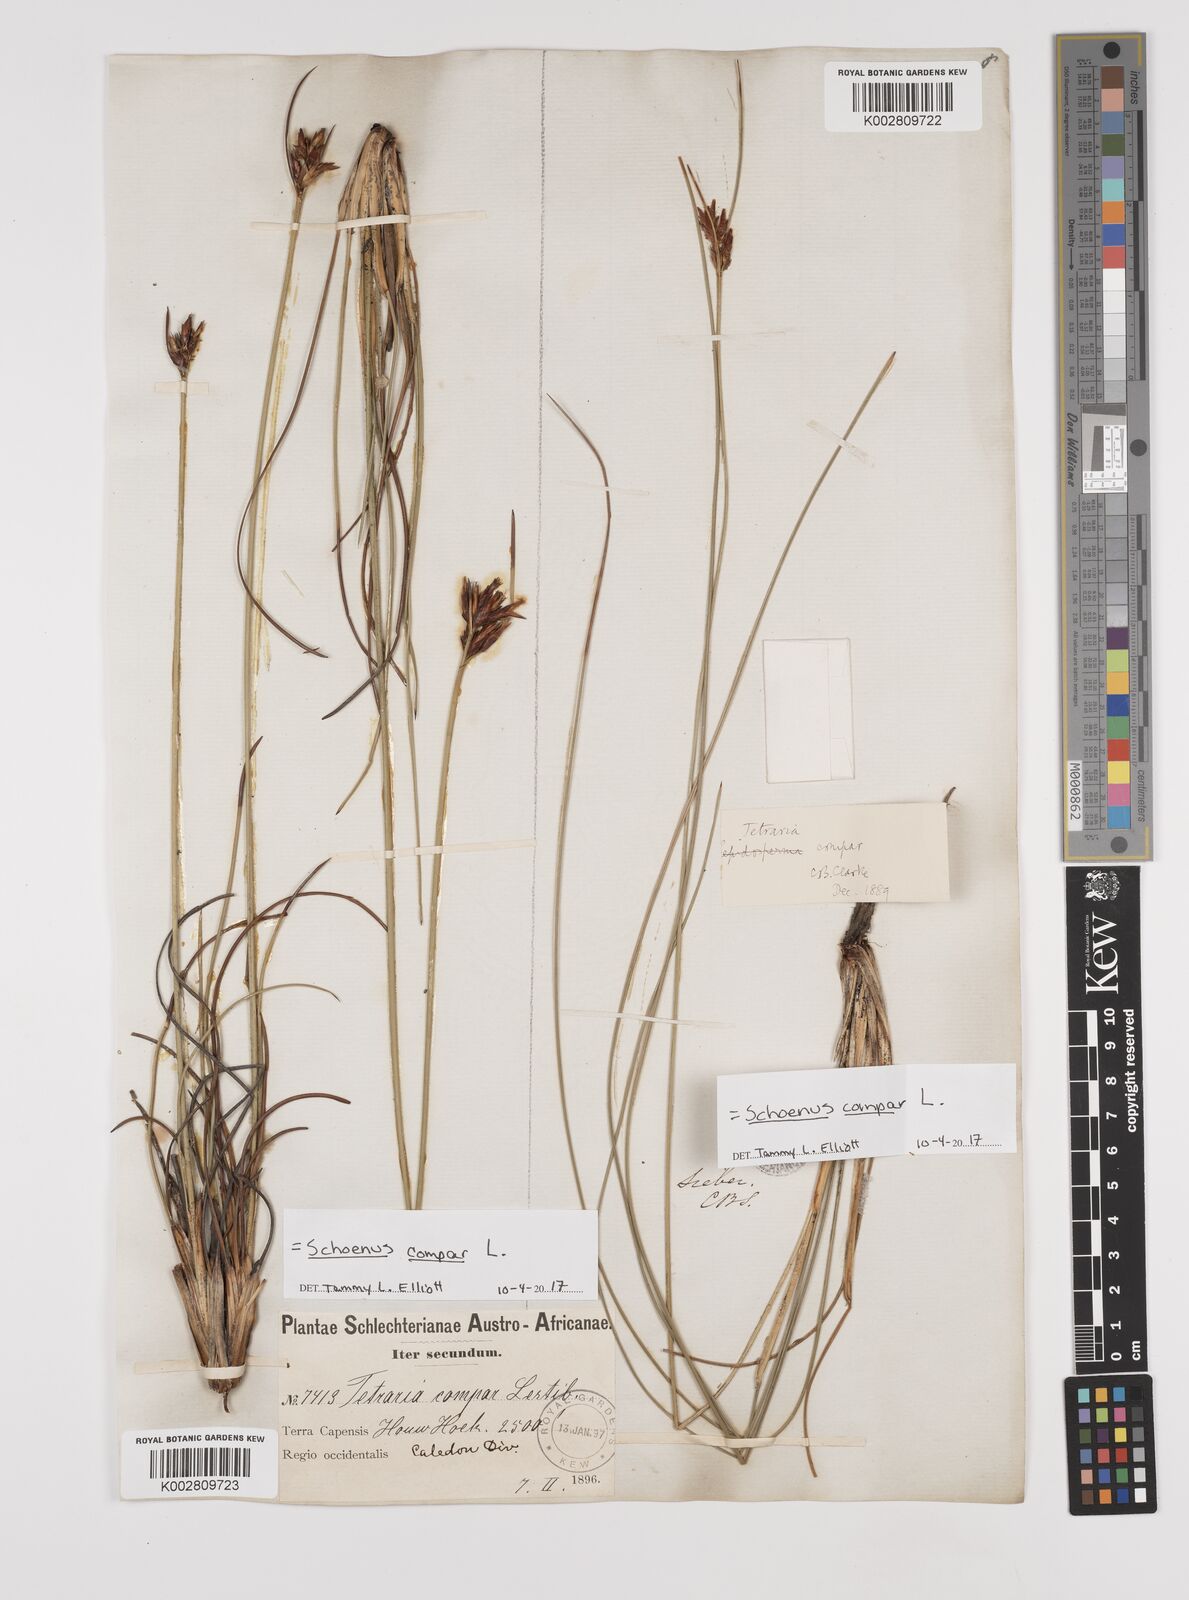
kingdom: Plantae
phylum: Tracheophyta
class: Liliopsida
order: Poales
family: Cyperaceae
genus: Schoenus
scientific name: Schoenus compar
